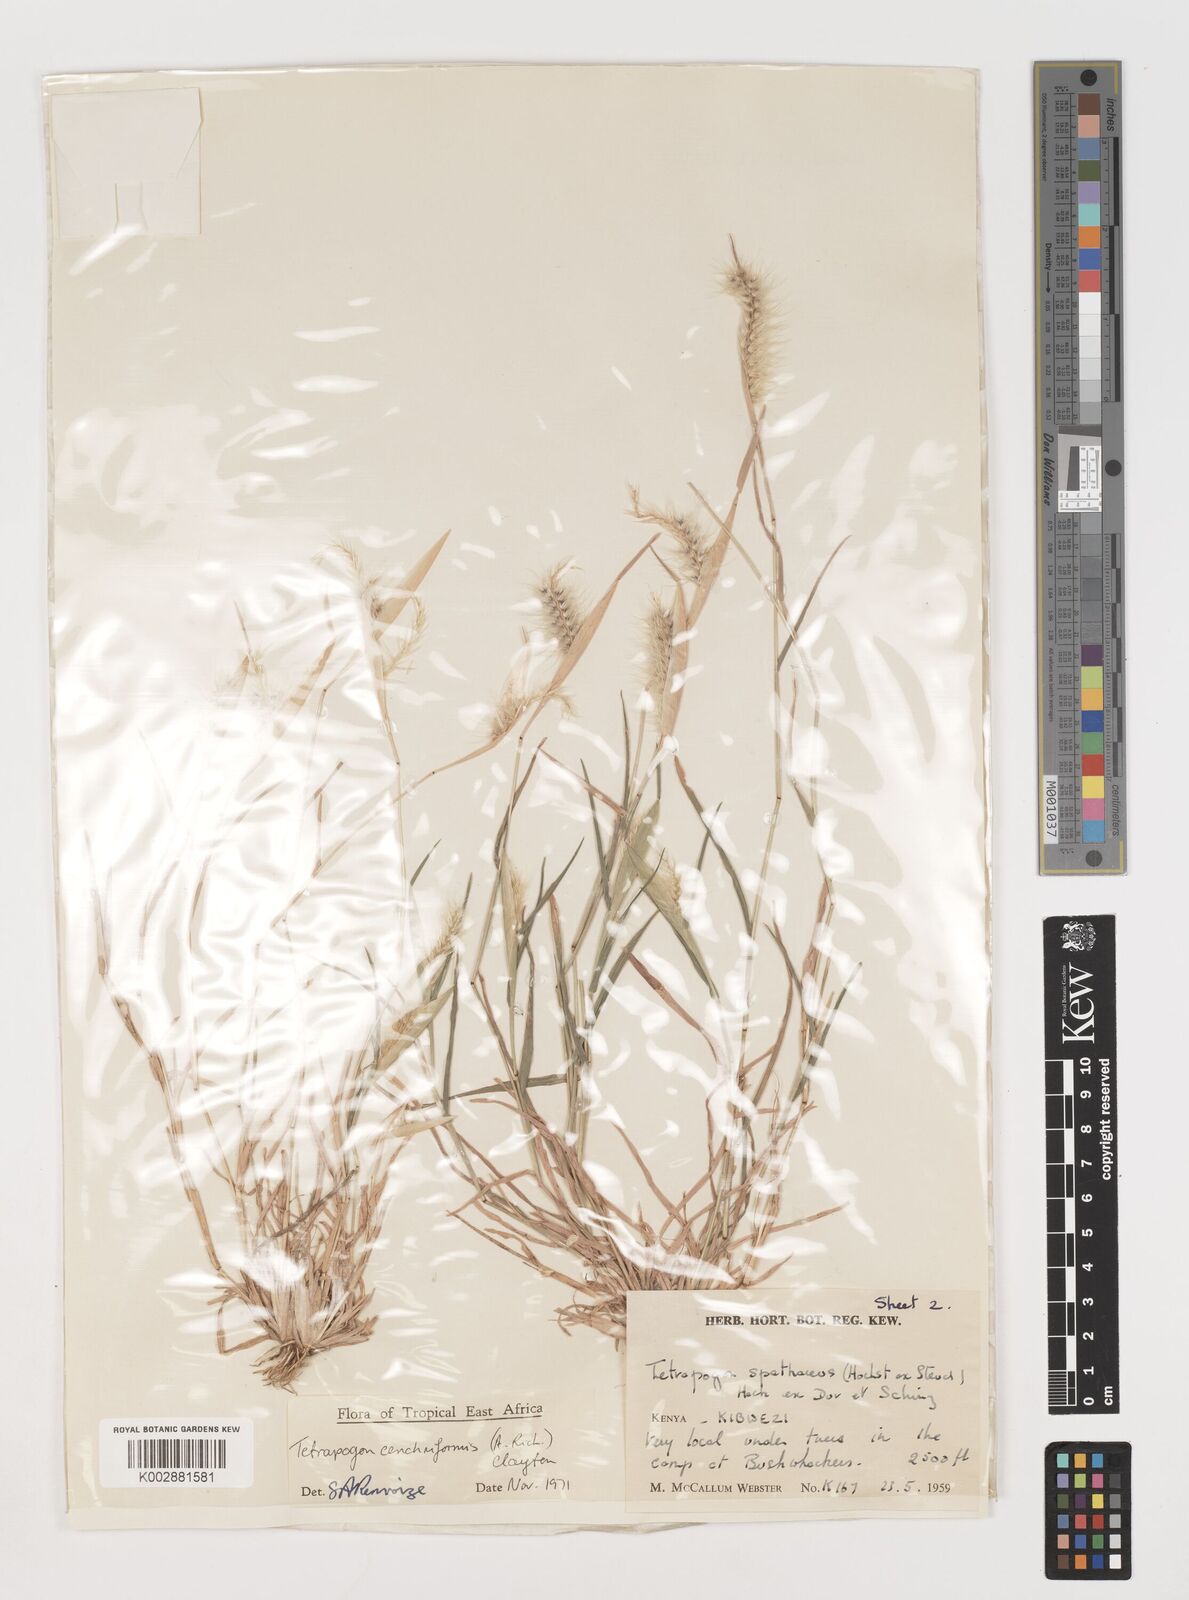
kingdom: Plantae
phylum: Tracheophyta
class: Liliopsida
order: Poales
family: Poaceae
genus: Tetrapogon
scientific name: Tetrapogon cenchriformis
